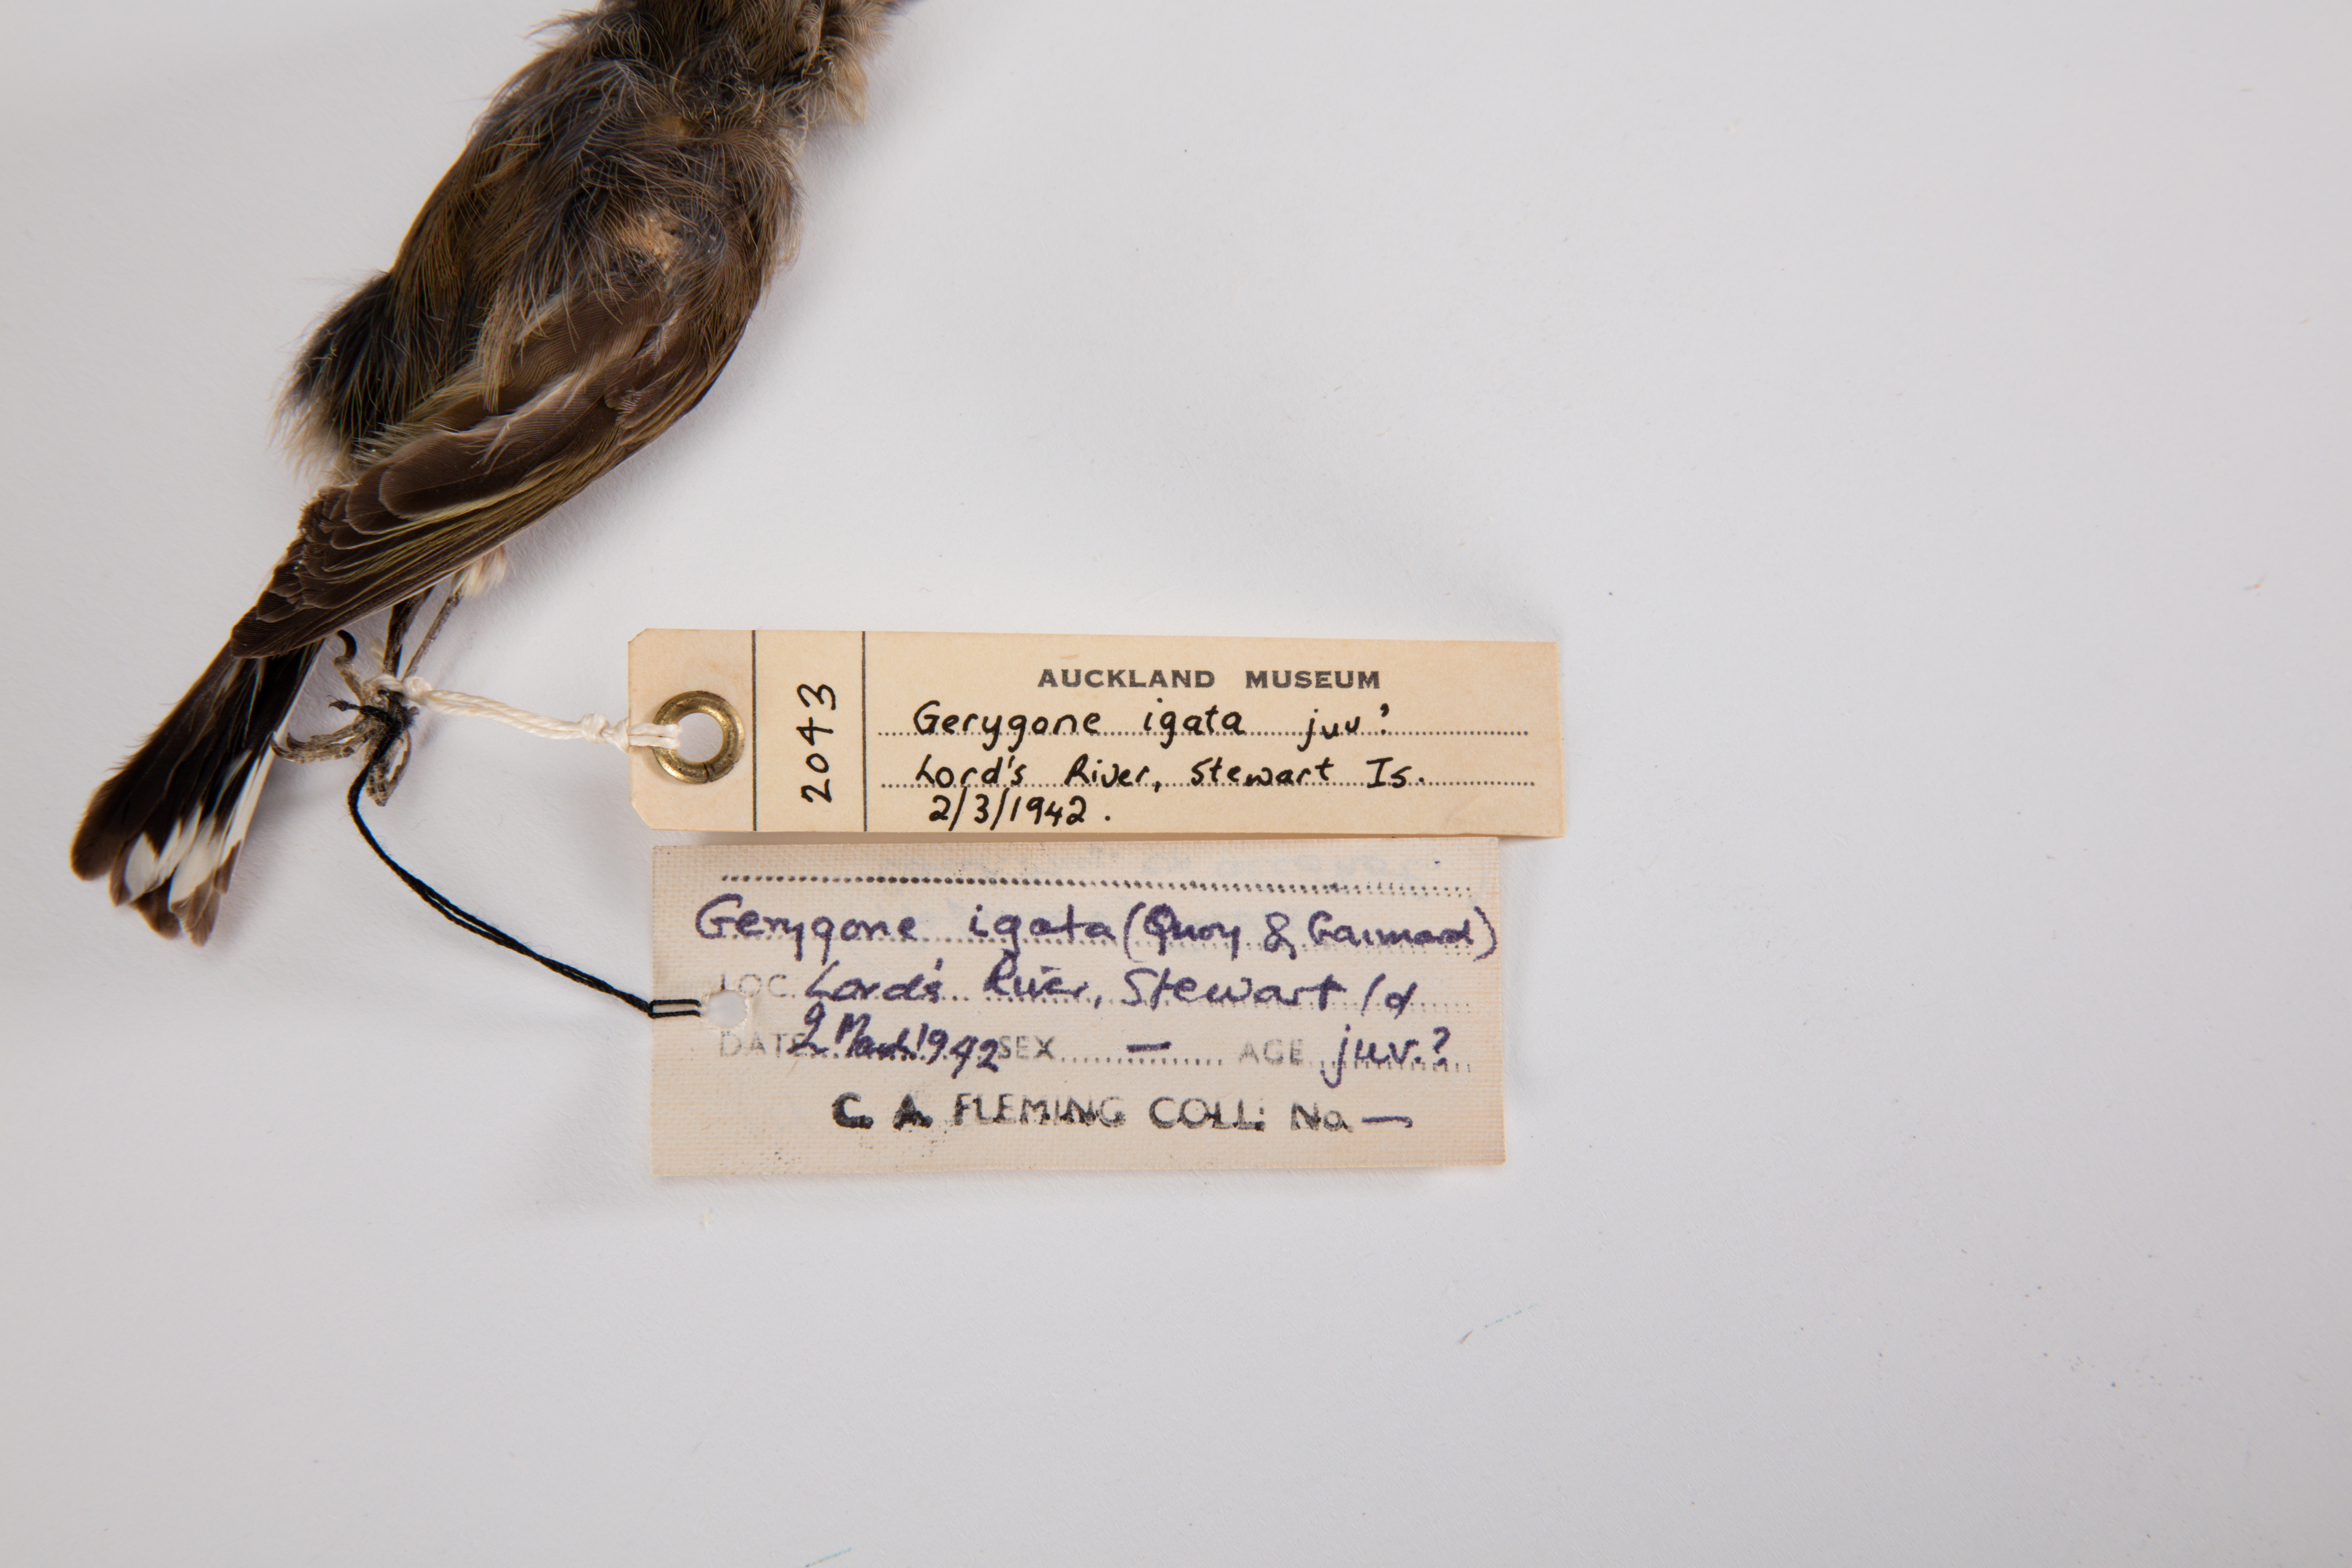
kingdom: Animalia
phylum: Chordata
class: Aves
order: Passeriformes
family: Acanthizidae
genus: Gerygone
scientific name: Gerygone igata
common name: Grey gerygone
